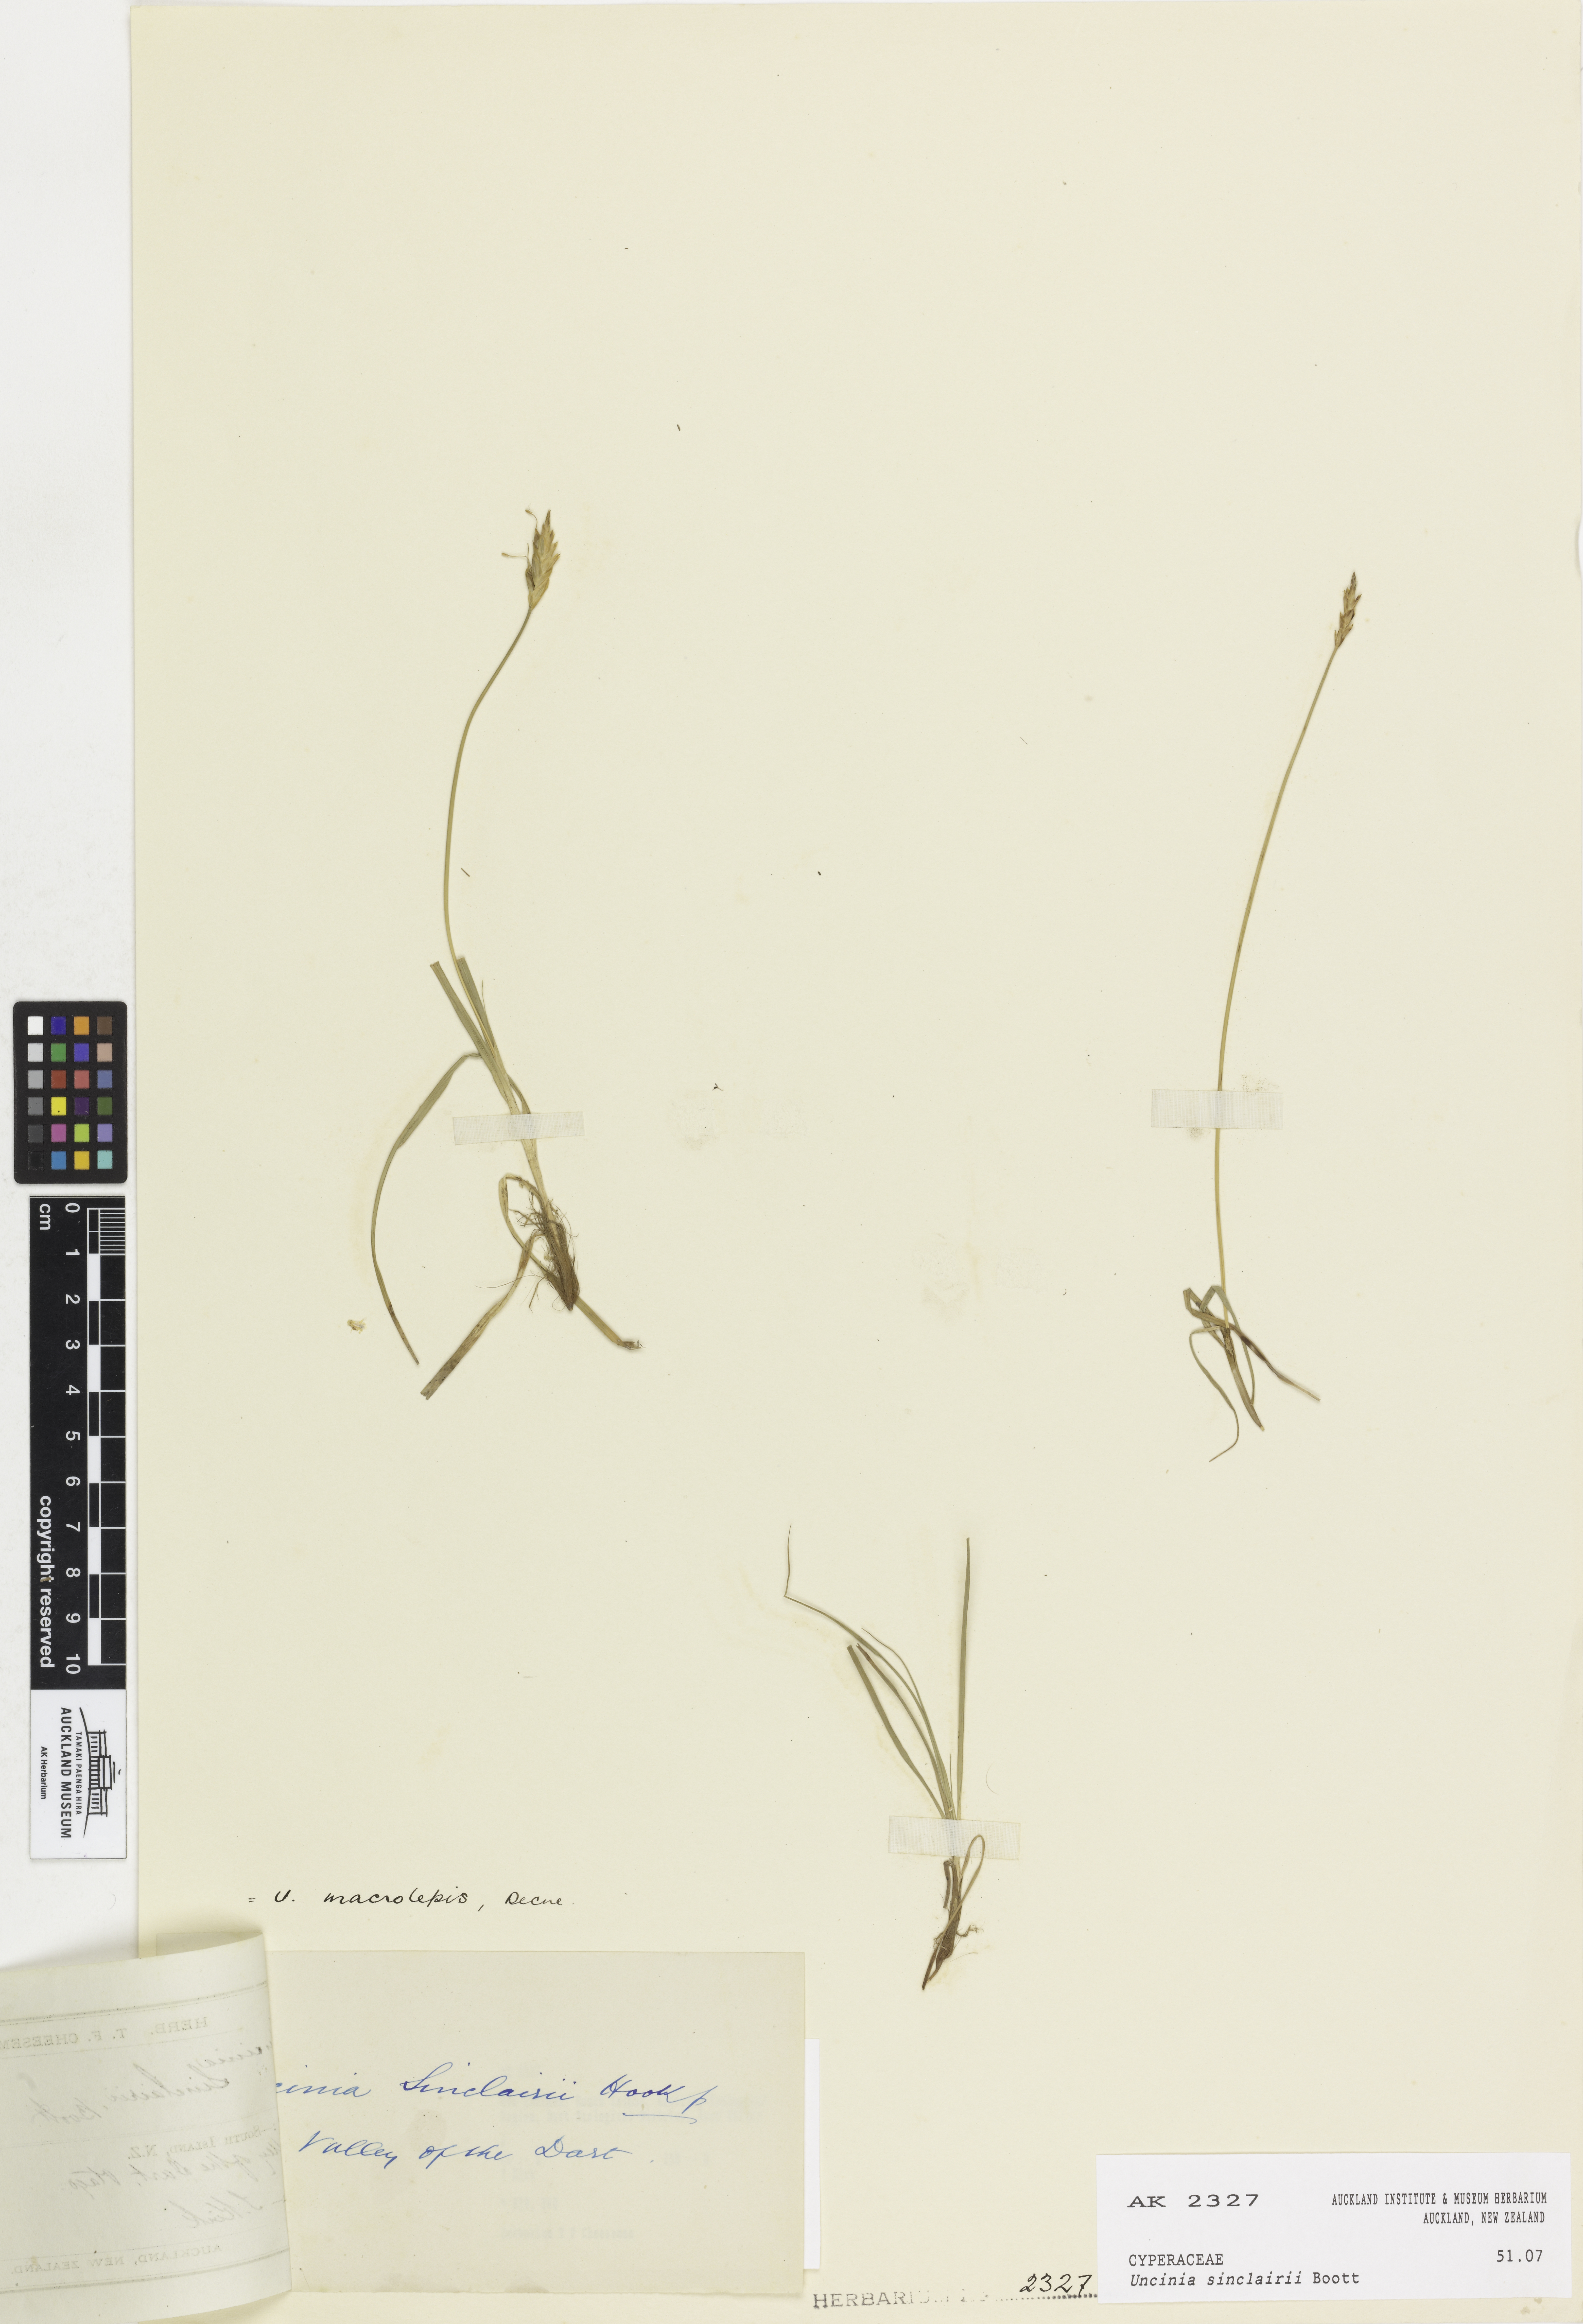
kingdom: Plantae
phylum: Tracheophyta
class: Liliopsida
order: Poales
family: Cyperaceae
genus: Carex
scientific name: Carex parvispica
